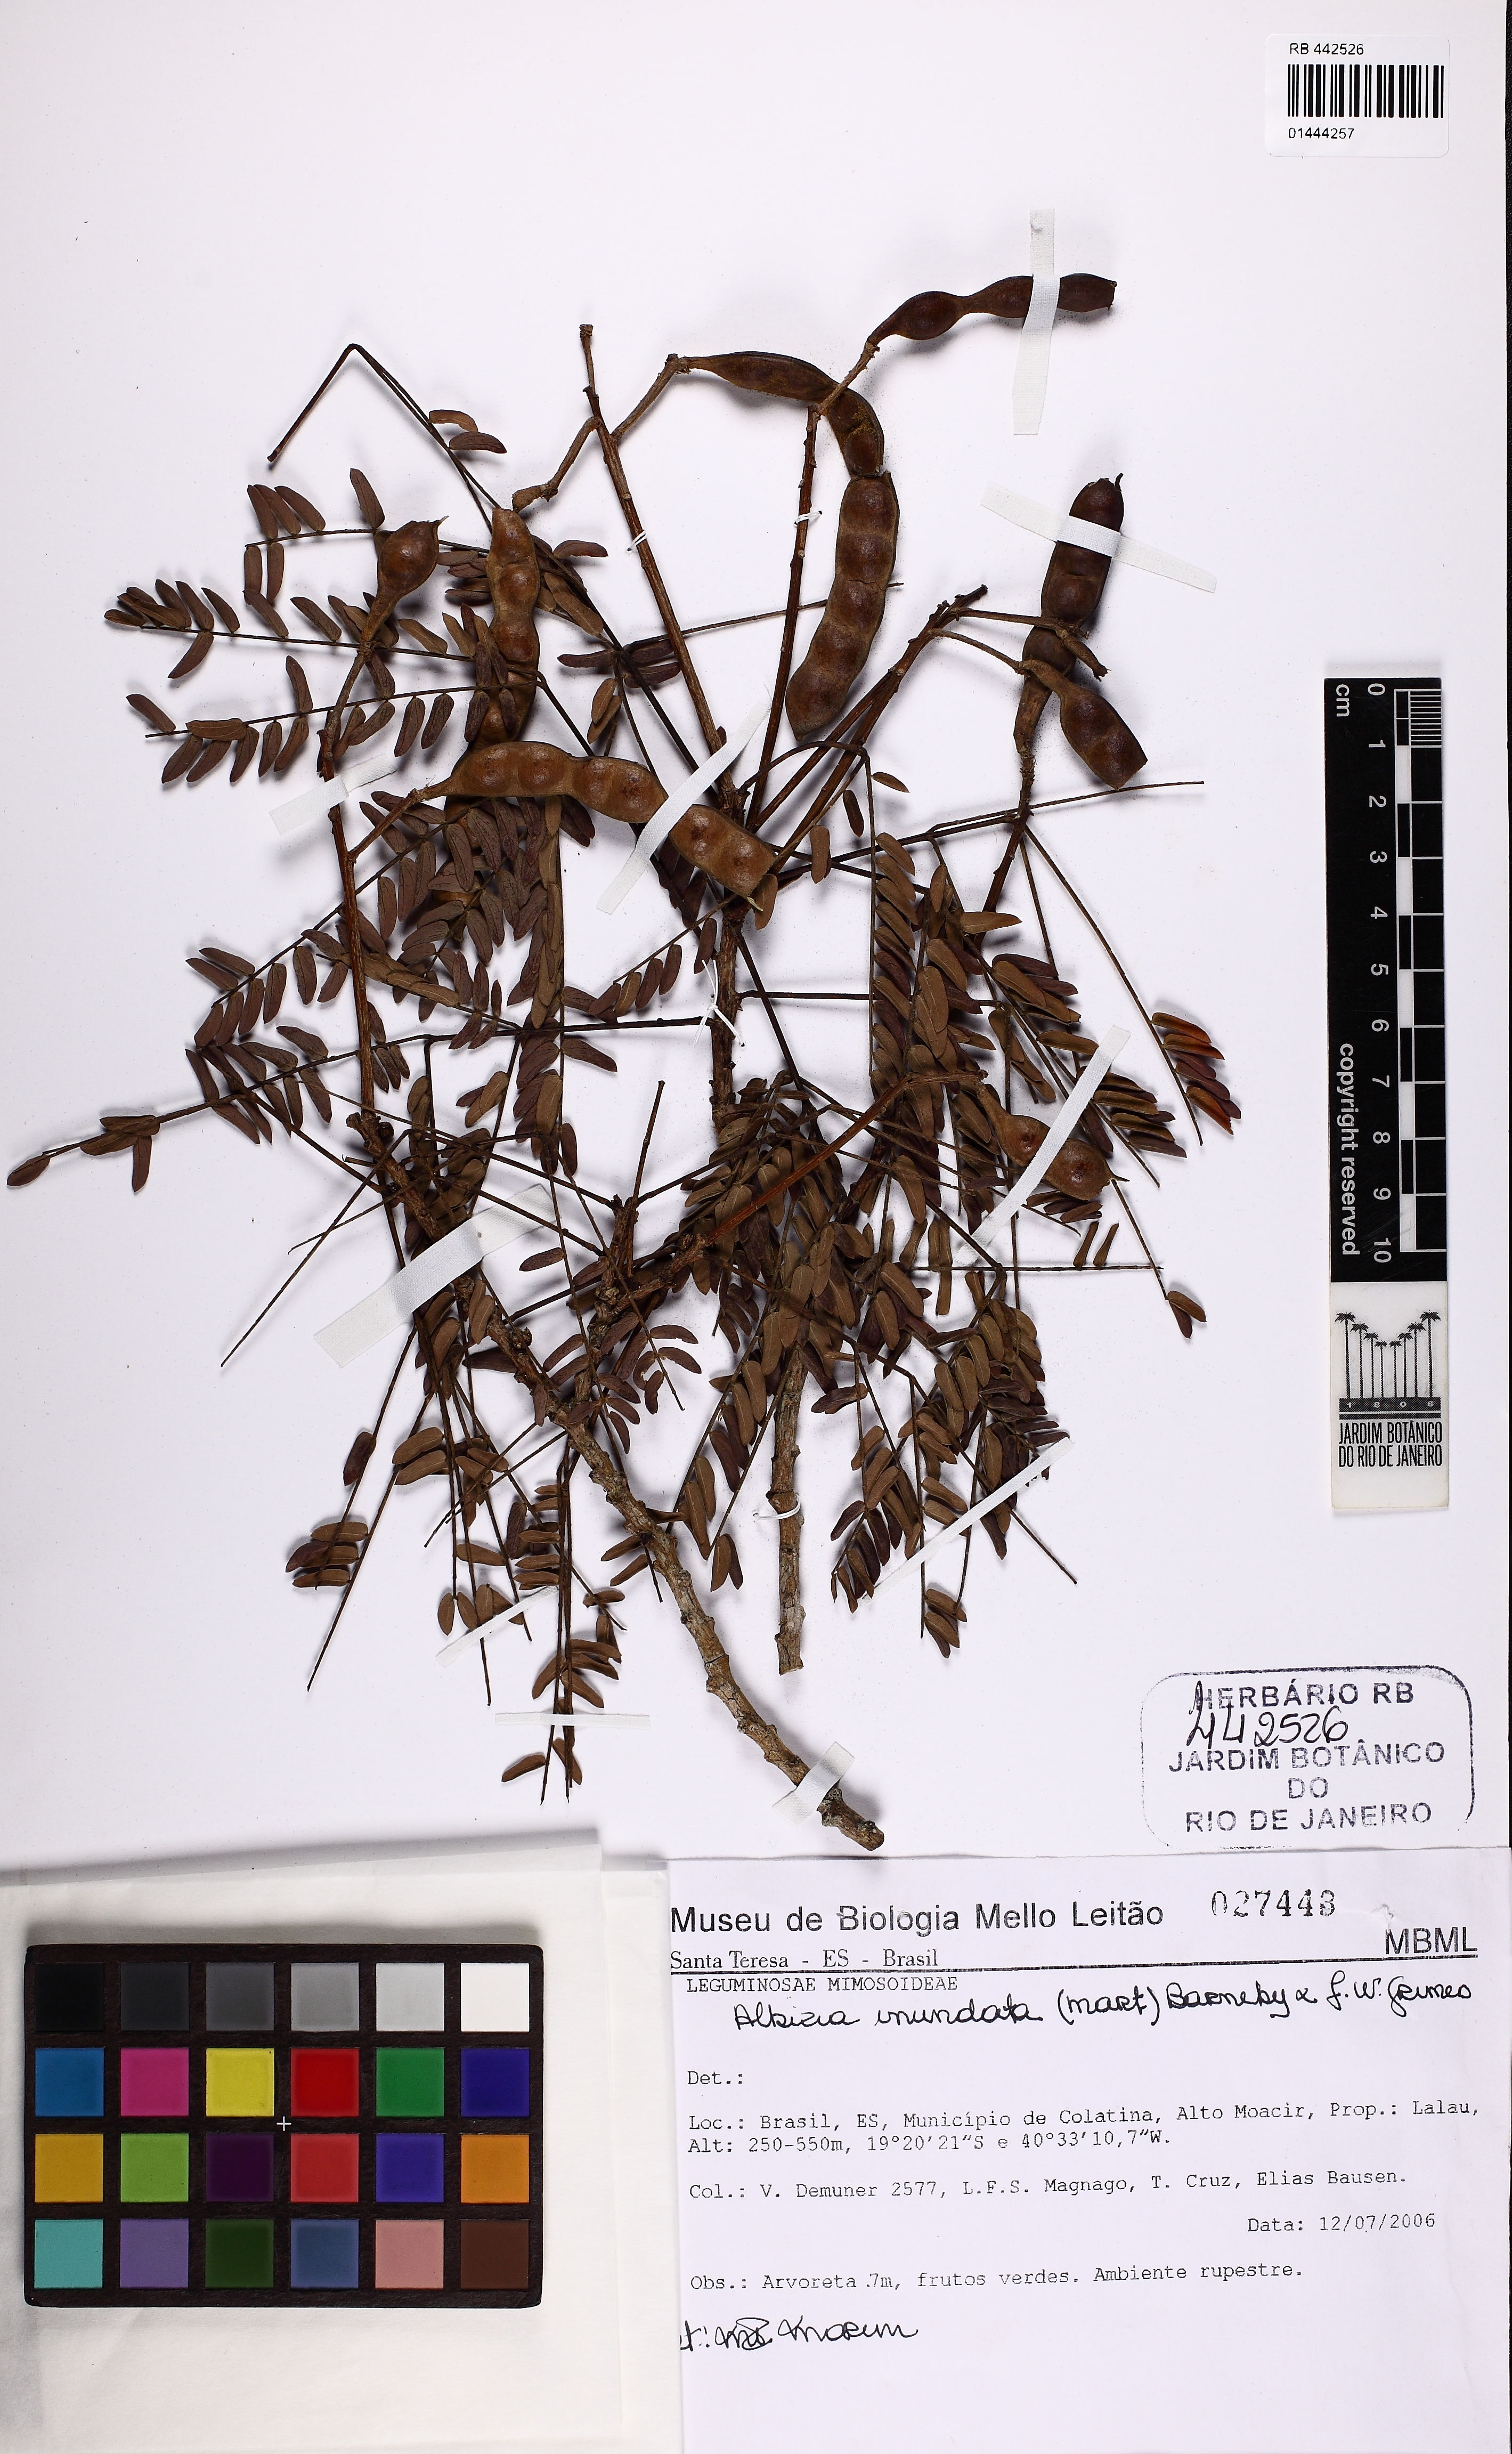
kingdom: Plantae
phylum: Tracheophyta
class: Magnoliopsida
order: Fabales
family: Fabaceae
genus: Albizia
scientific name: Albizia inundata
